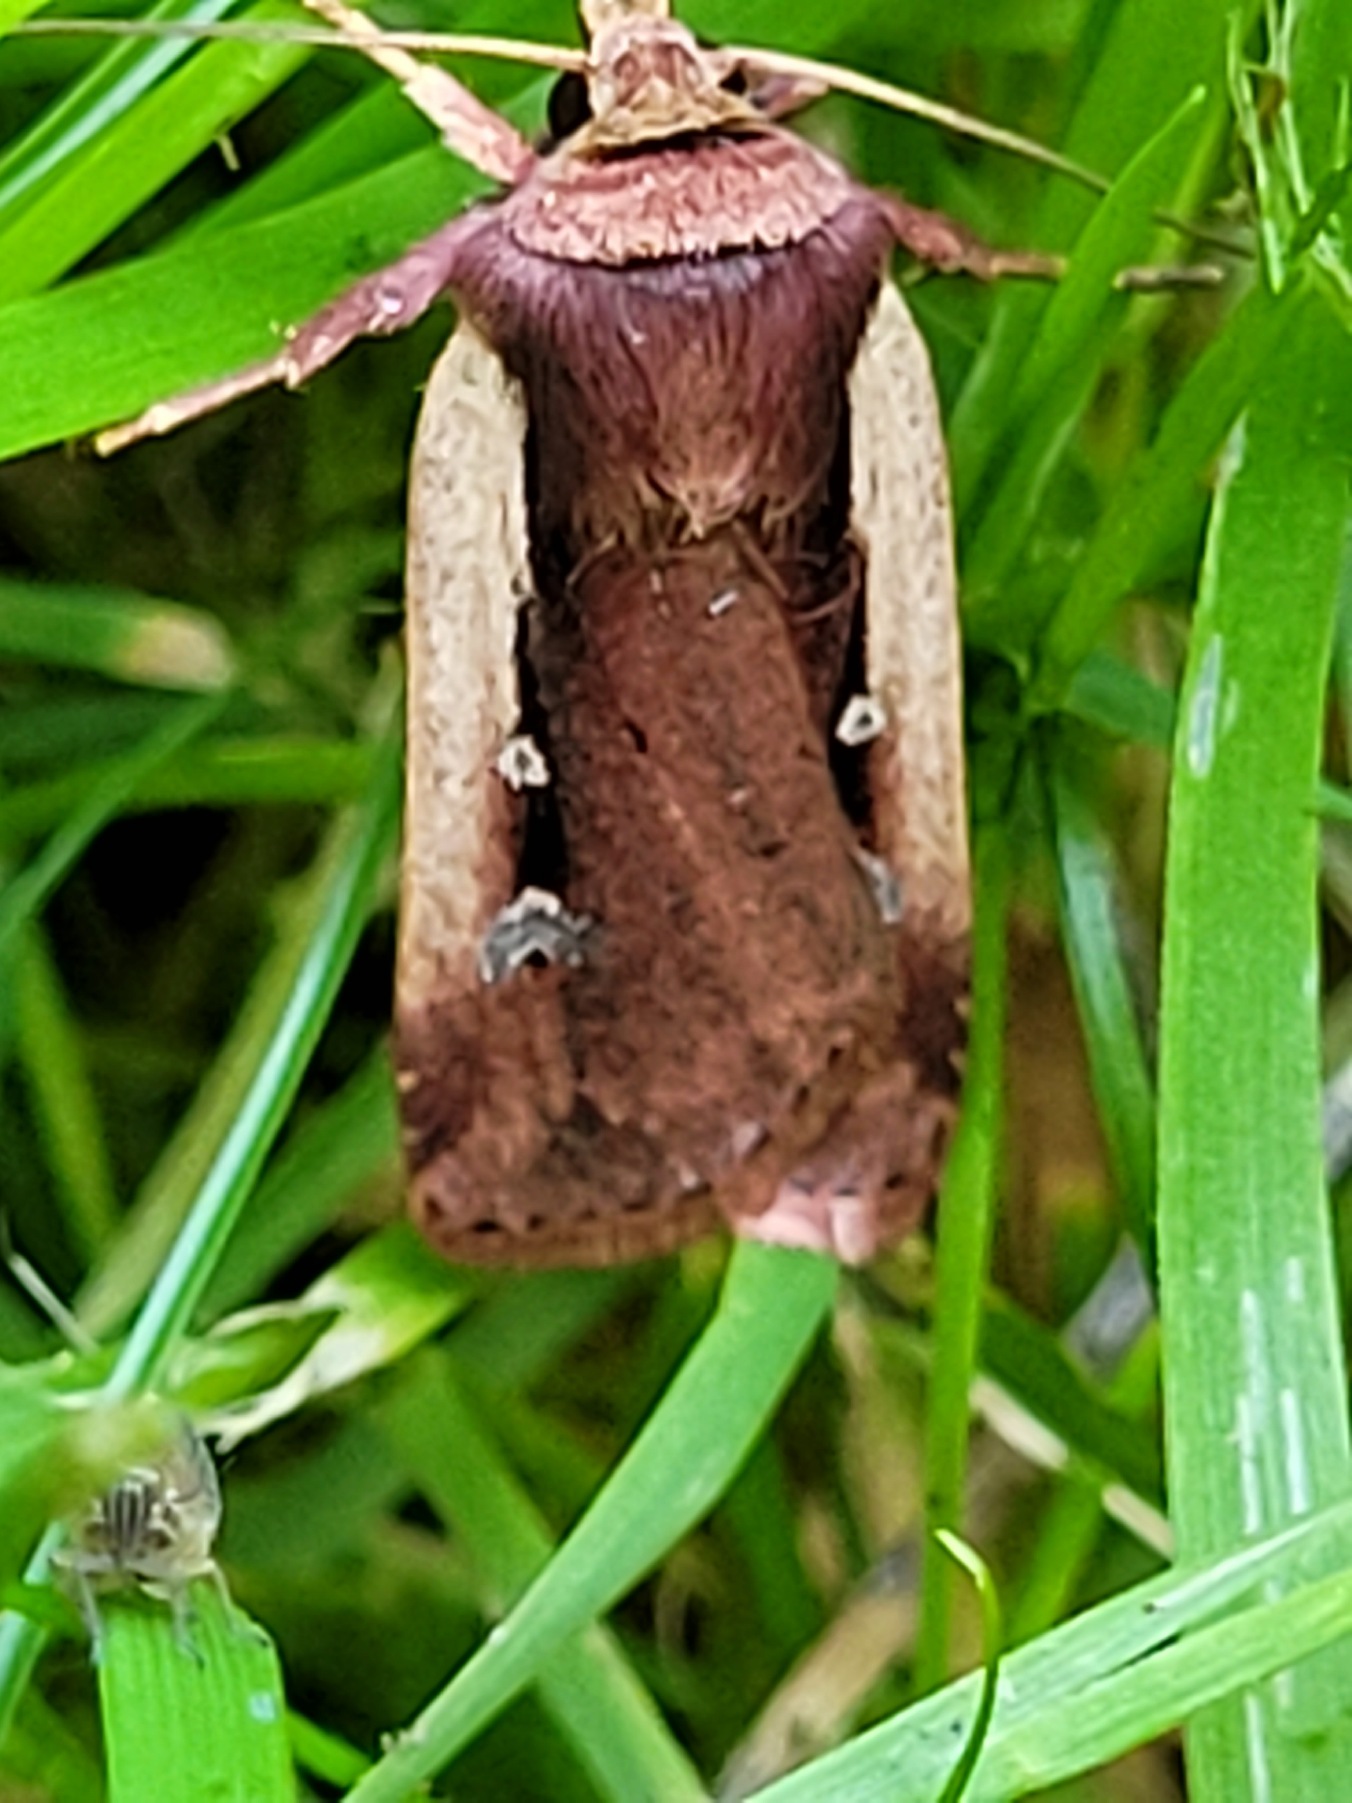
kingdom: Animalia
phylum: Arthropoda
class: Insecta
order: Lepidoptera
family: Noctuidae
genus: Ochropleura
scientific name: Ochropleura plecta
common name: Hvidrandet jordugle
